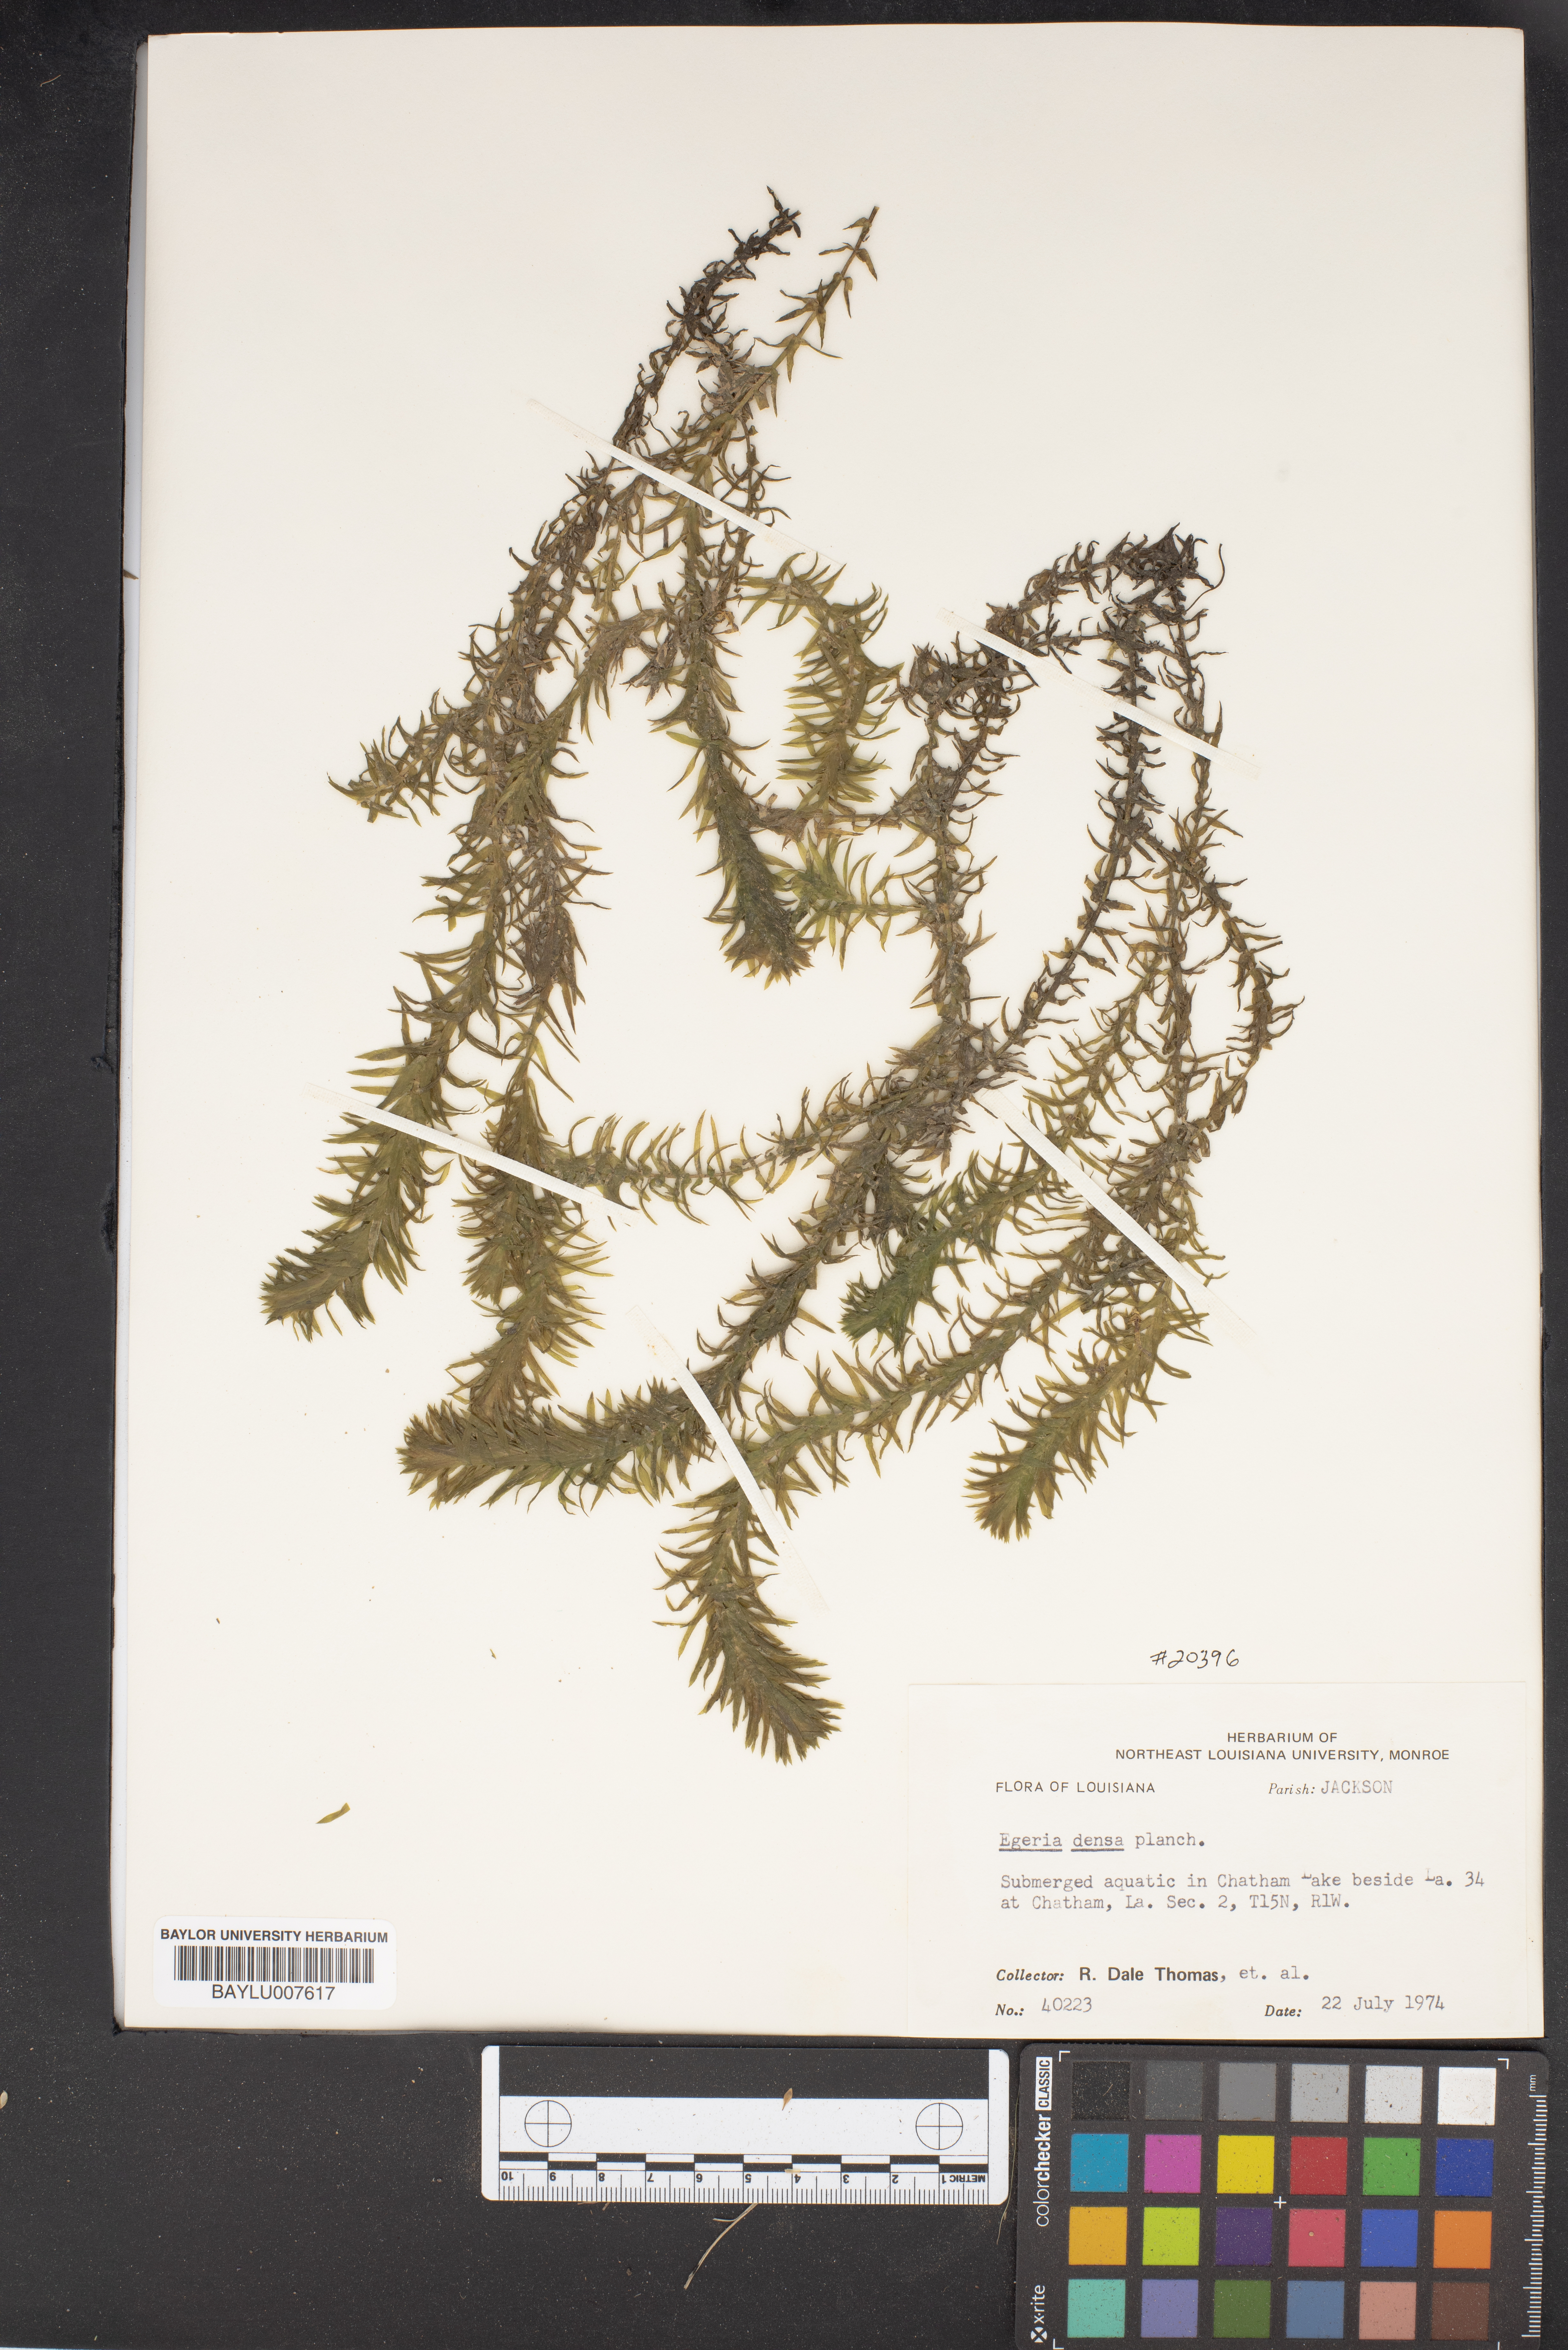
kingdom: Plantae
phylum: Tracheophyta
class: Liliopsida
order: Alismatales
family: Hydrocharitaceae
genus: Elodea
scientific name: Elodea densa
